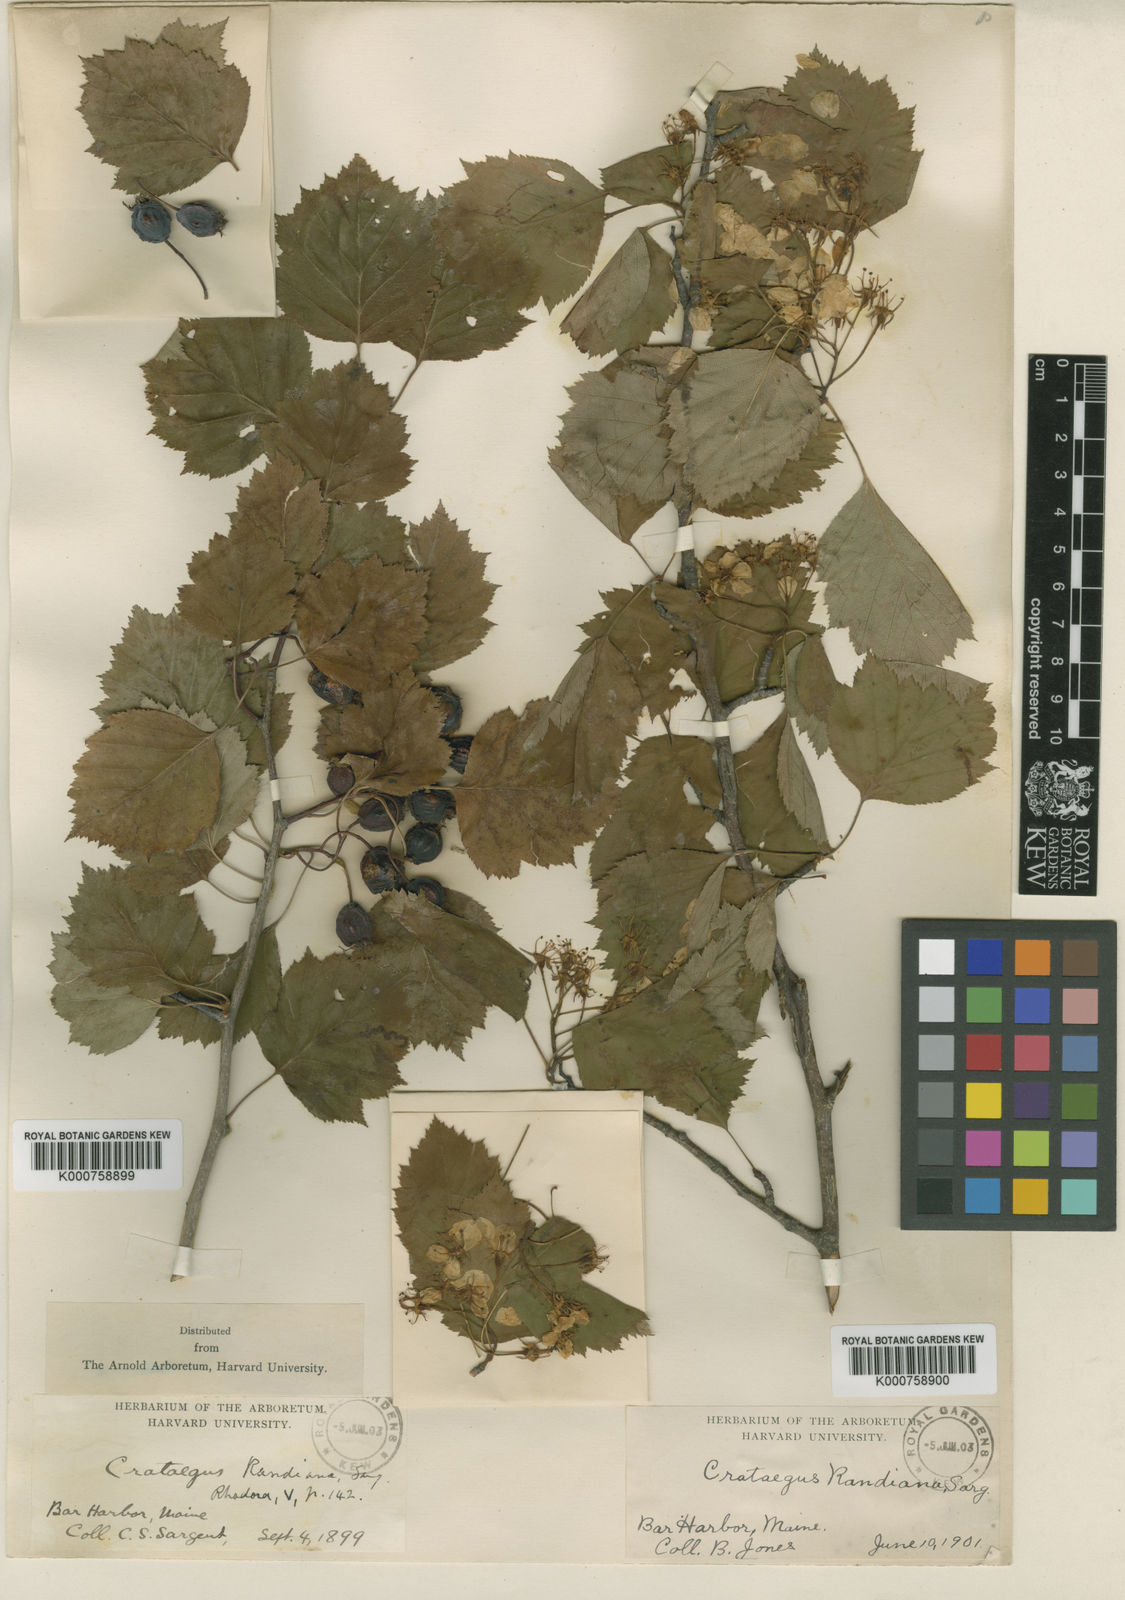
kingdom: Plantae
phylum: Tracheophyta
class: Magnoliopsida
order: Rosales
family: Rosaceae
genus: Crataegus
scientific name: Crataegus macrosperma
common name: Variable hawthorn
